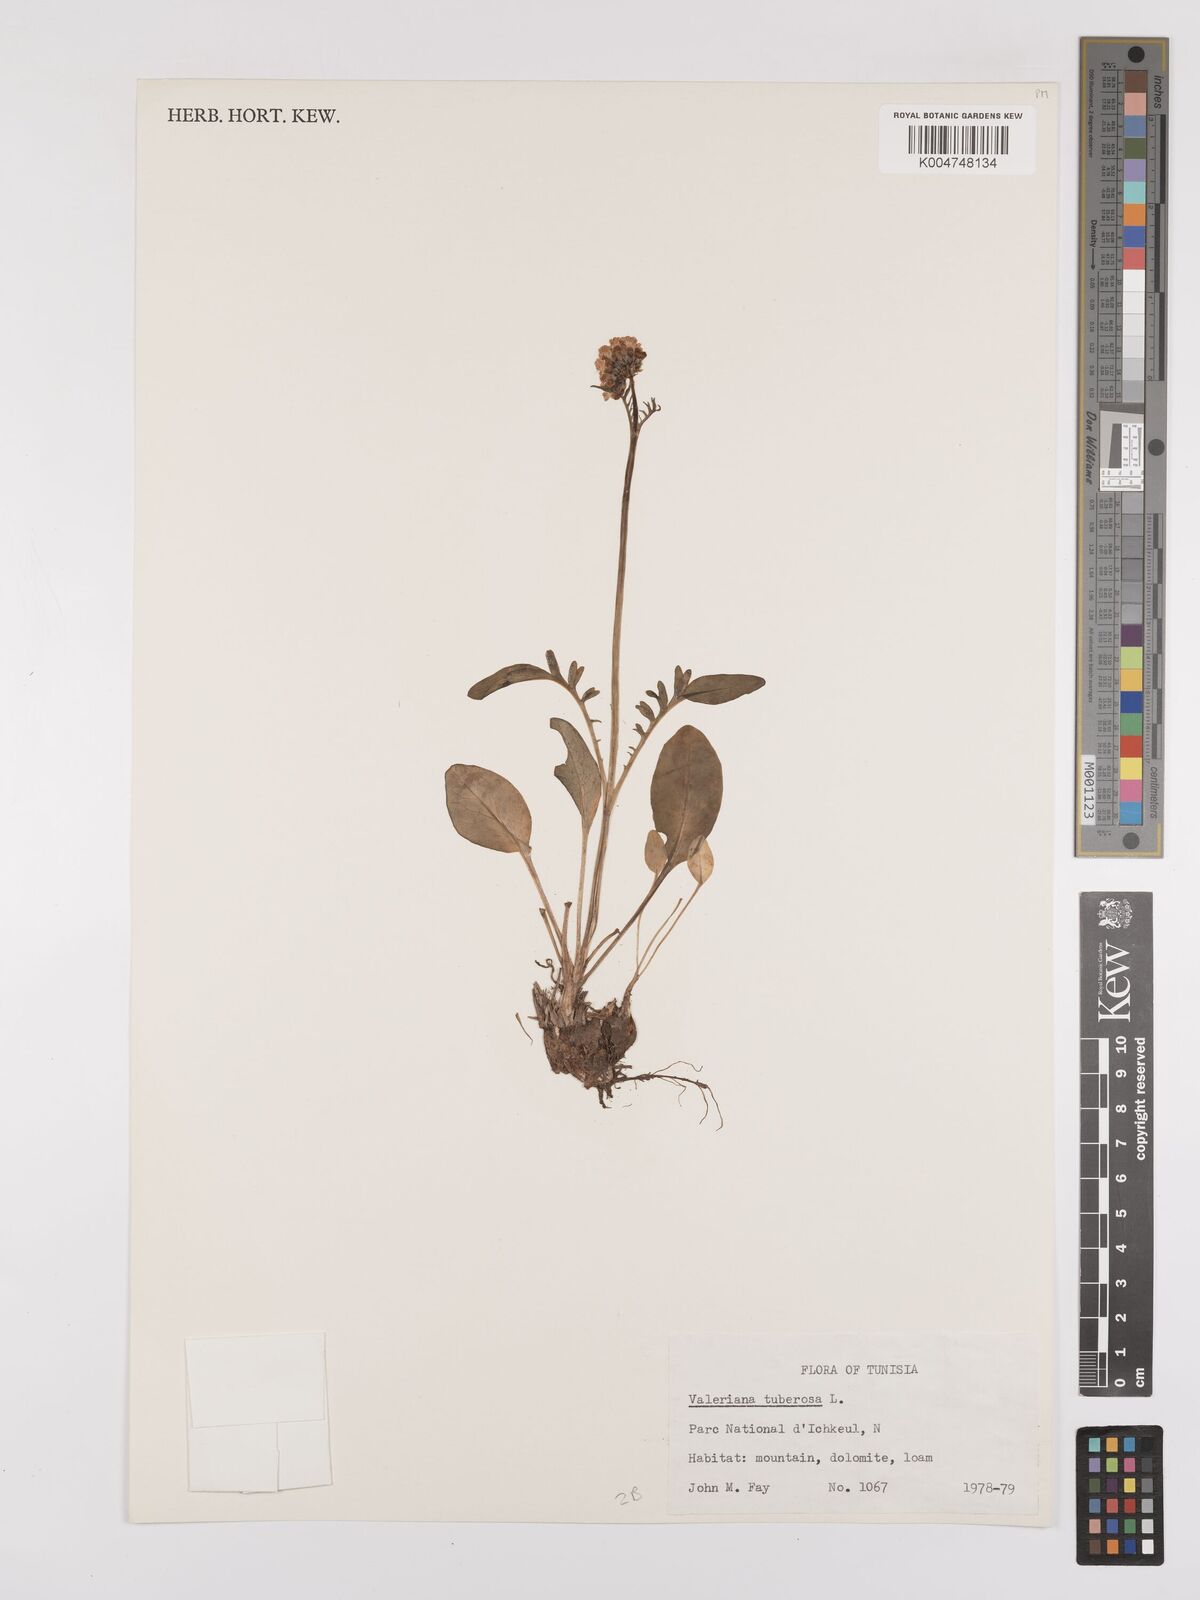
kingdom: Plantae
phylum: Tracheophyta
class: Magnoliopsida
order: Dipsacales
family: Caprifoliaceae
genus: Valeriana
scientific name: Valeriana tuberosa
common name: Tuberous valerian
